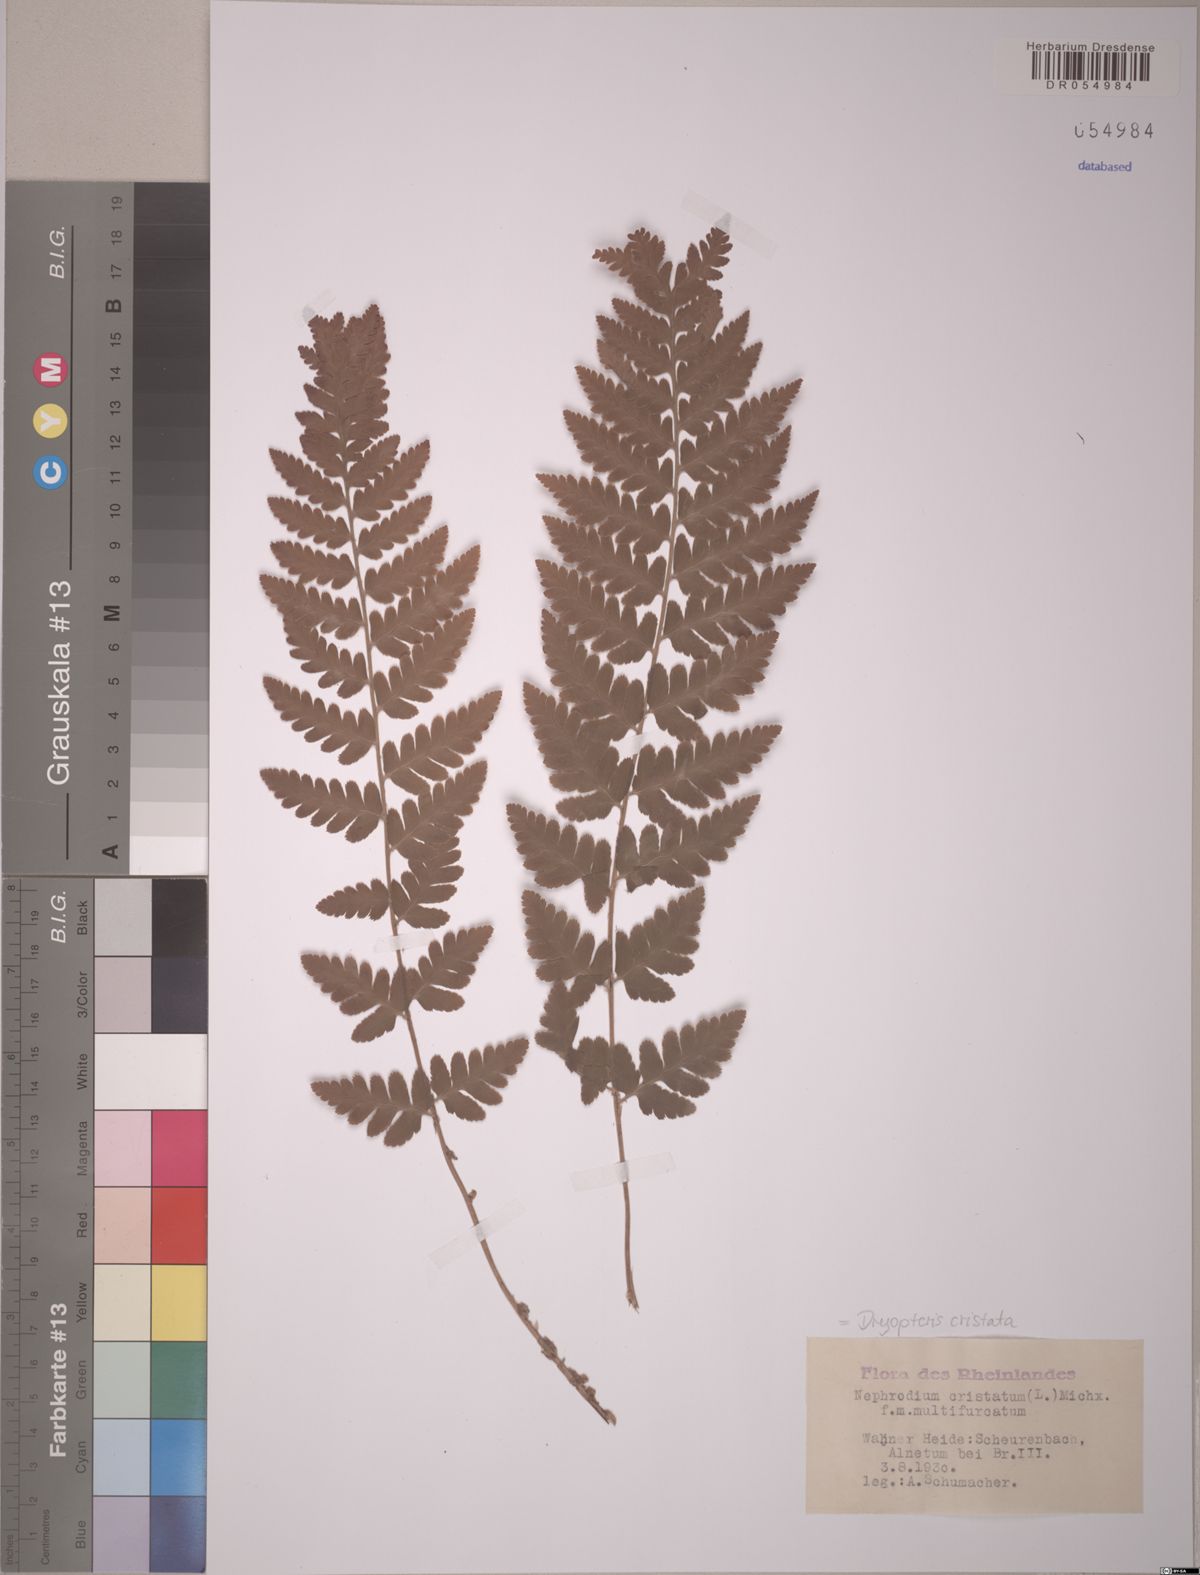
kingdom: Plantae
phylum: Tracheophyta
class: Polypodiopsida
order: Polypodiales
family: Dryopteridaceae
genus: Dryopteris
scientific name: Dryopteris cristata
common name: Crested wood fern
